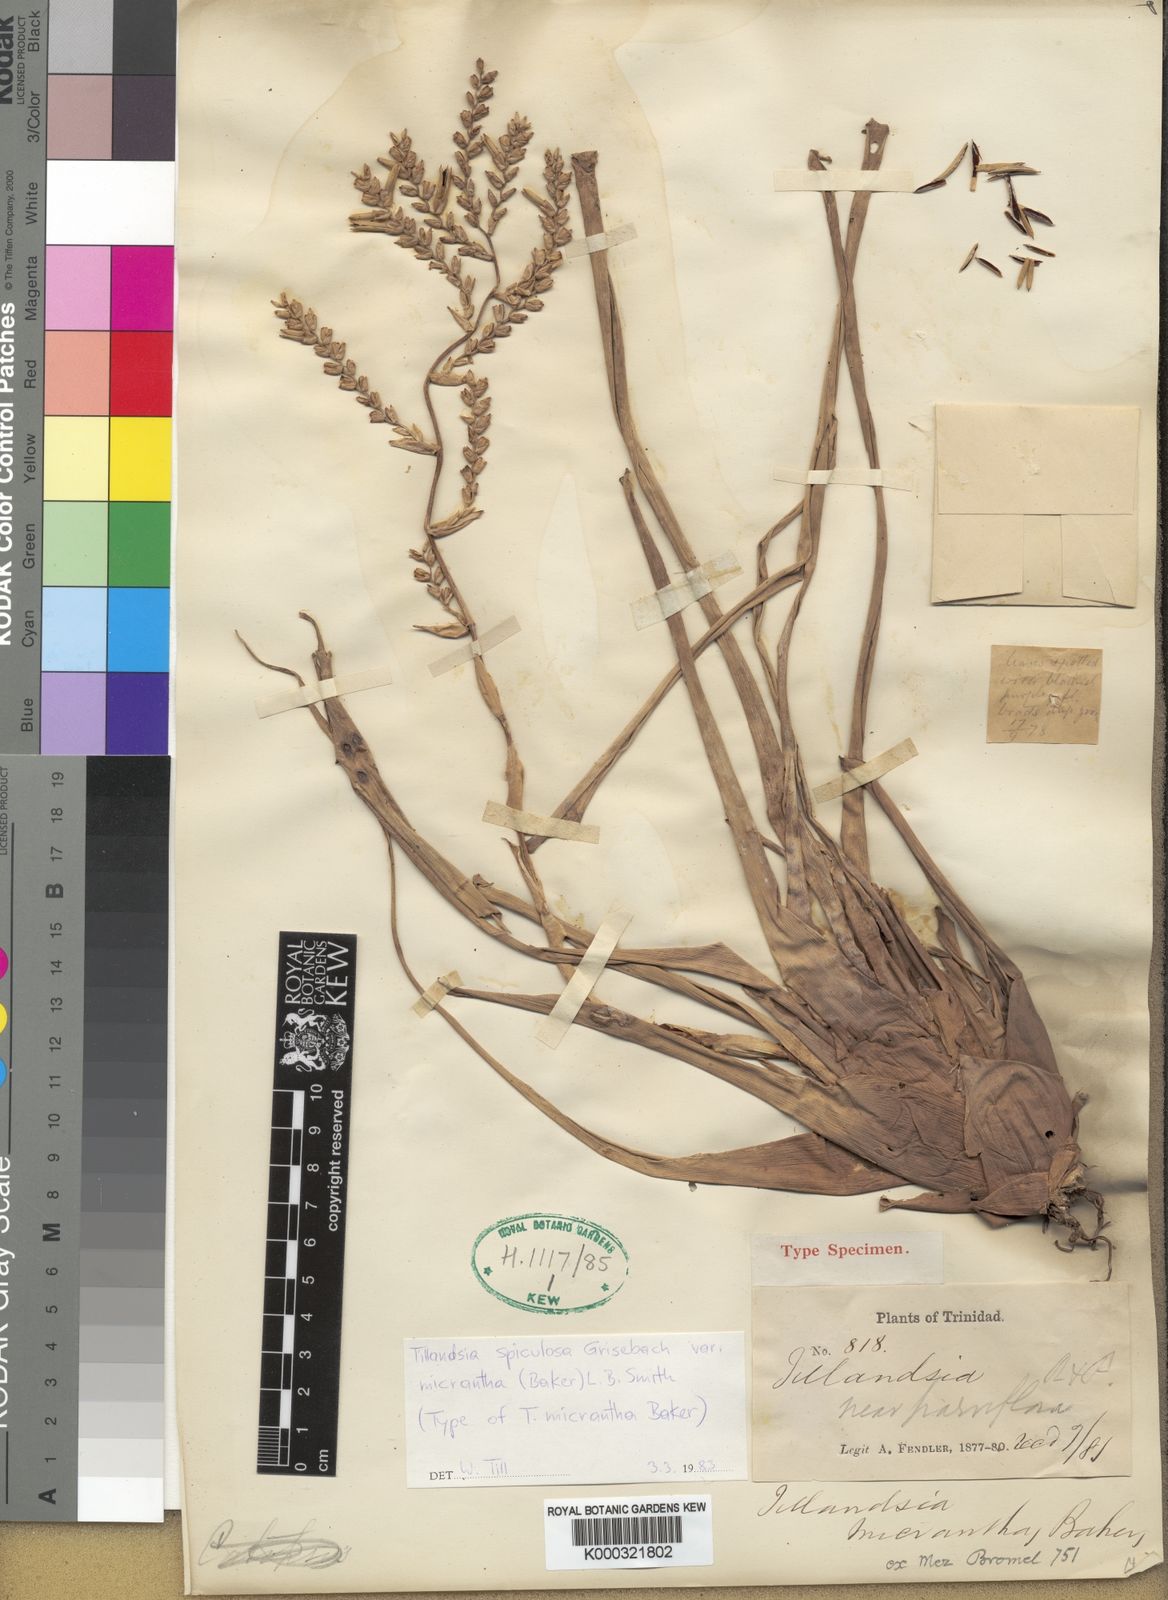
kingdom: Plantae
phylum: Tracheophyta
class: Liliopsida
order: Poales
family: Bromeliaceae
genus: Racinaea
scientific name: Racinaea spiculosa
